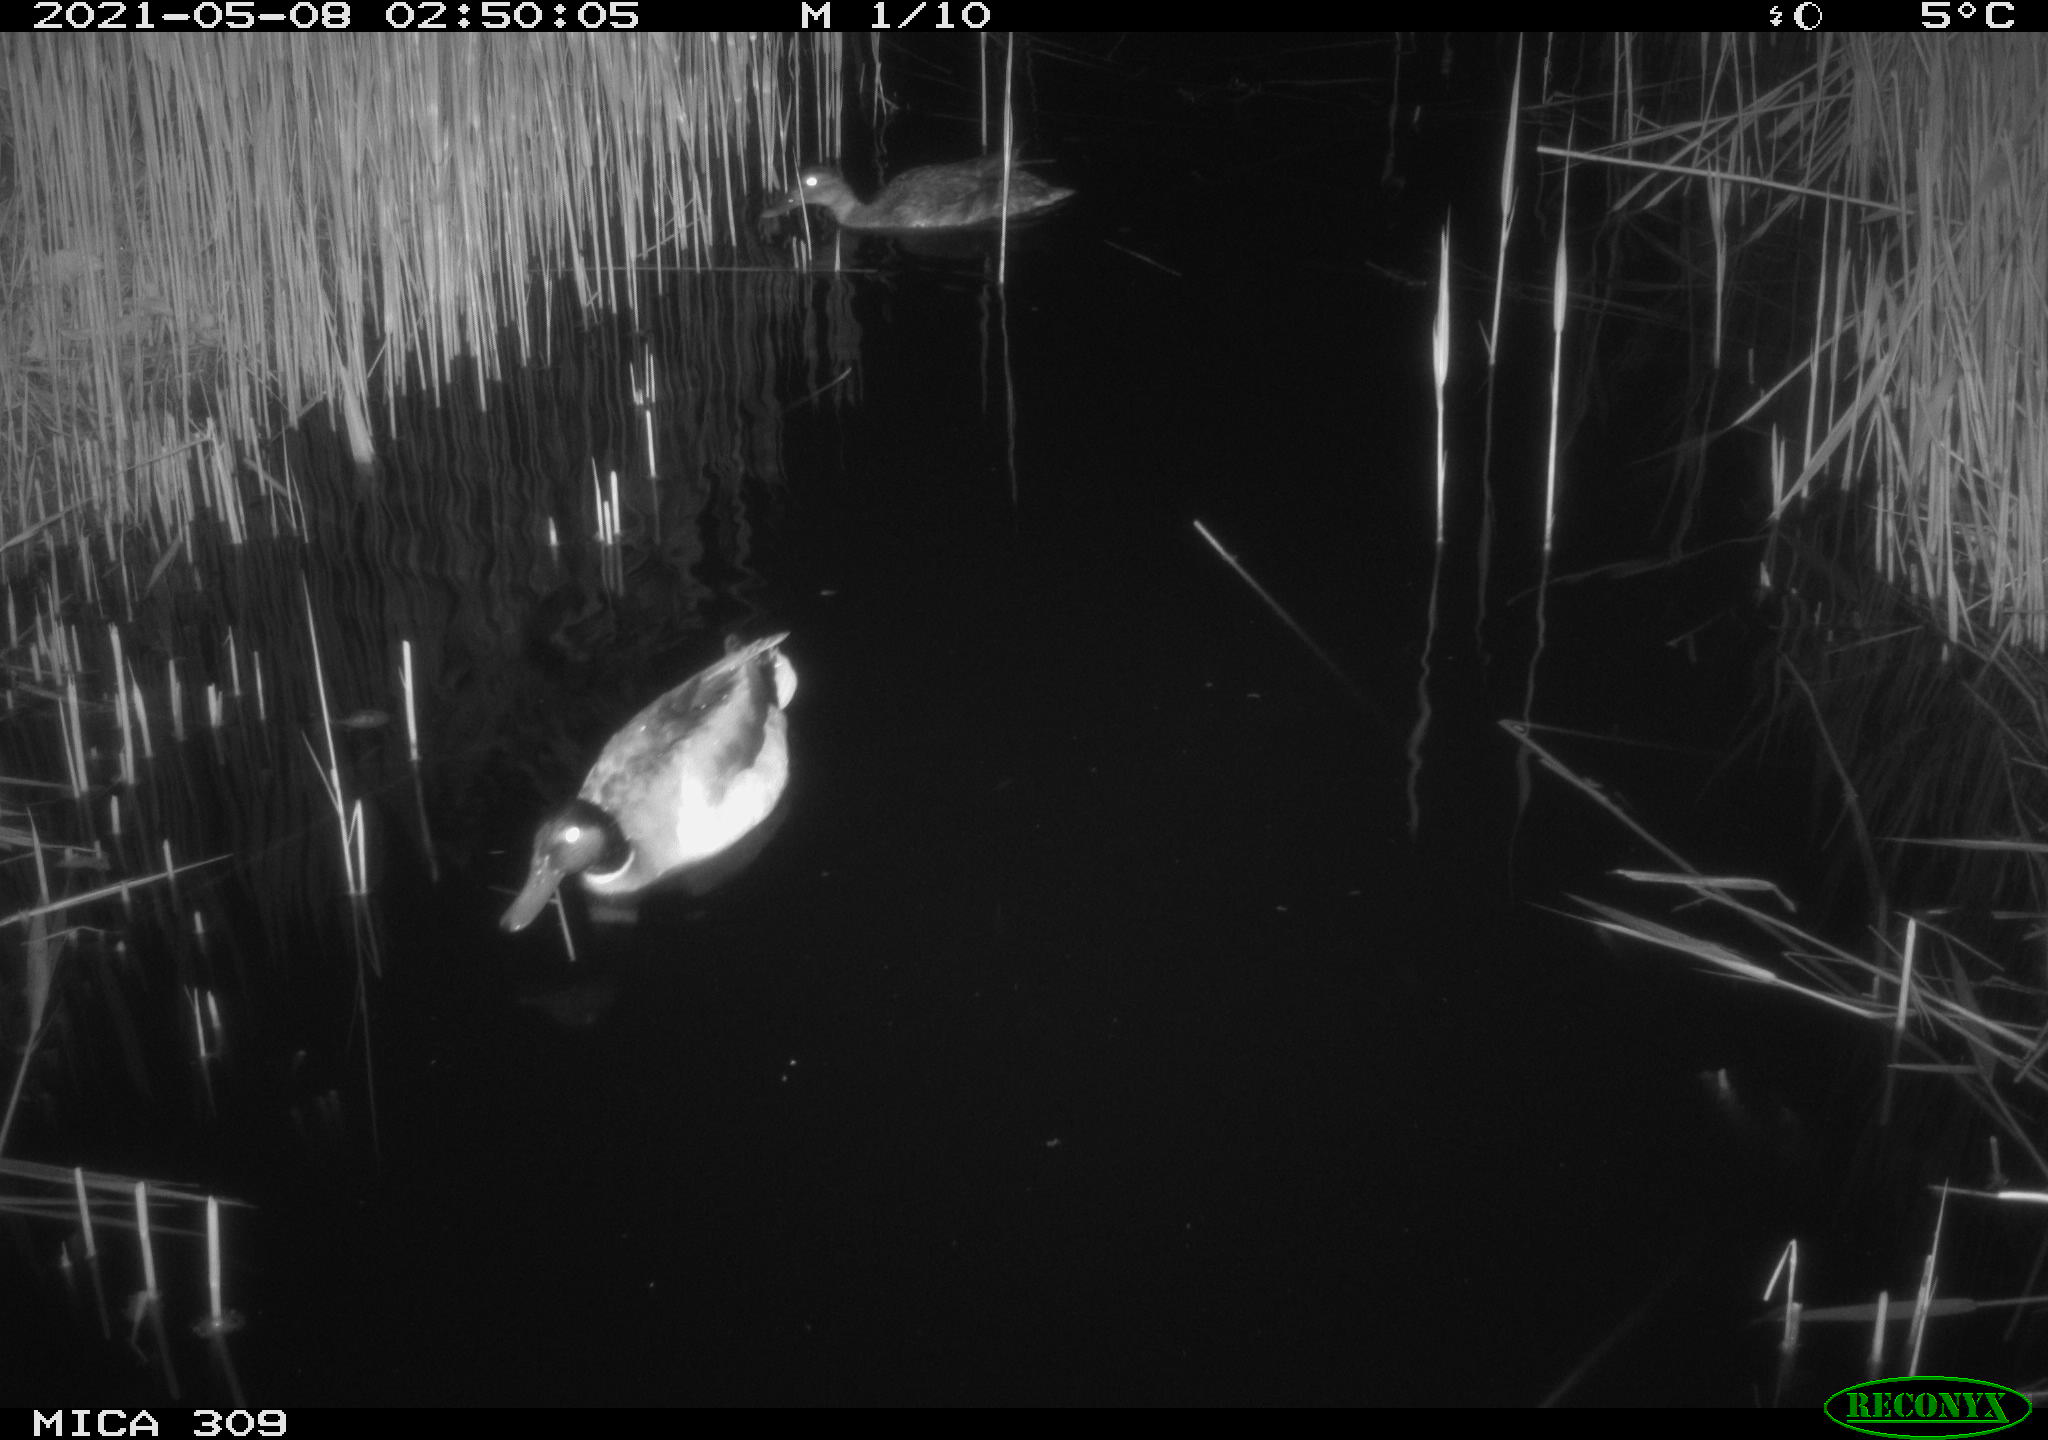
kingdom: Animalia
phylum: Chordata
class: Aves
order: Anseriformes
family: Anatidae
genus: Anas
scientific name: Anas platyrhynchos
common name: Mallard
